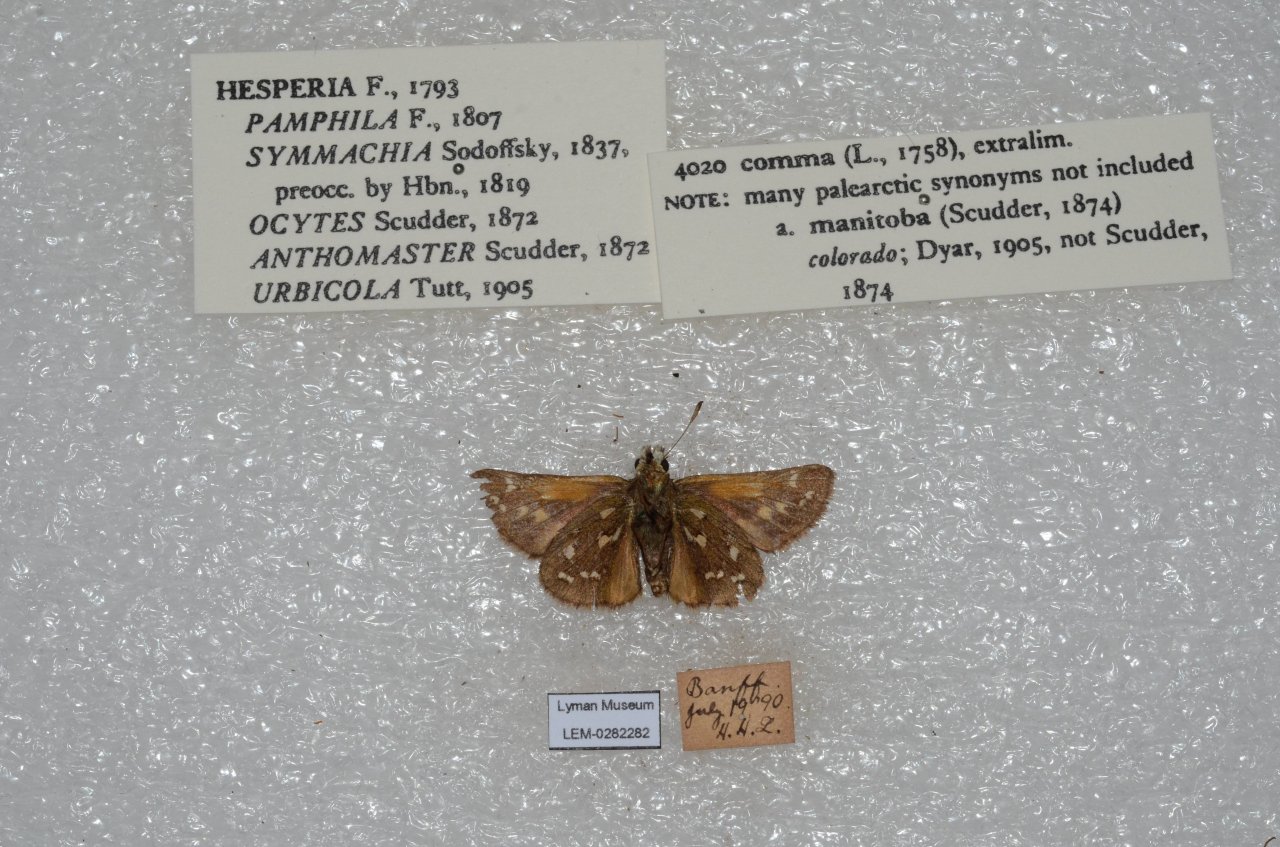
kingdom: Animalia
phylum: Arthropoda
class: Insecta
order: Lepidoptera
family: Hesperiidae
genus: Hesperia
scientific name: Hesperia comma
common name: Common Branded Skipper
